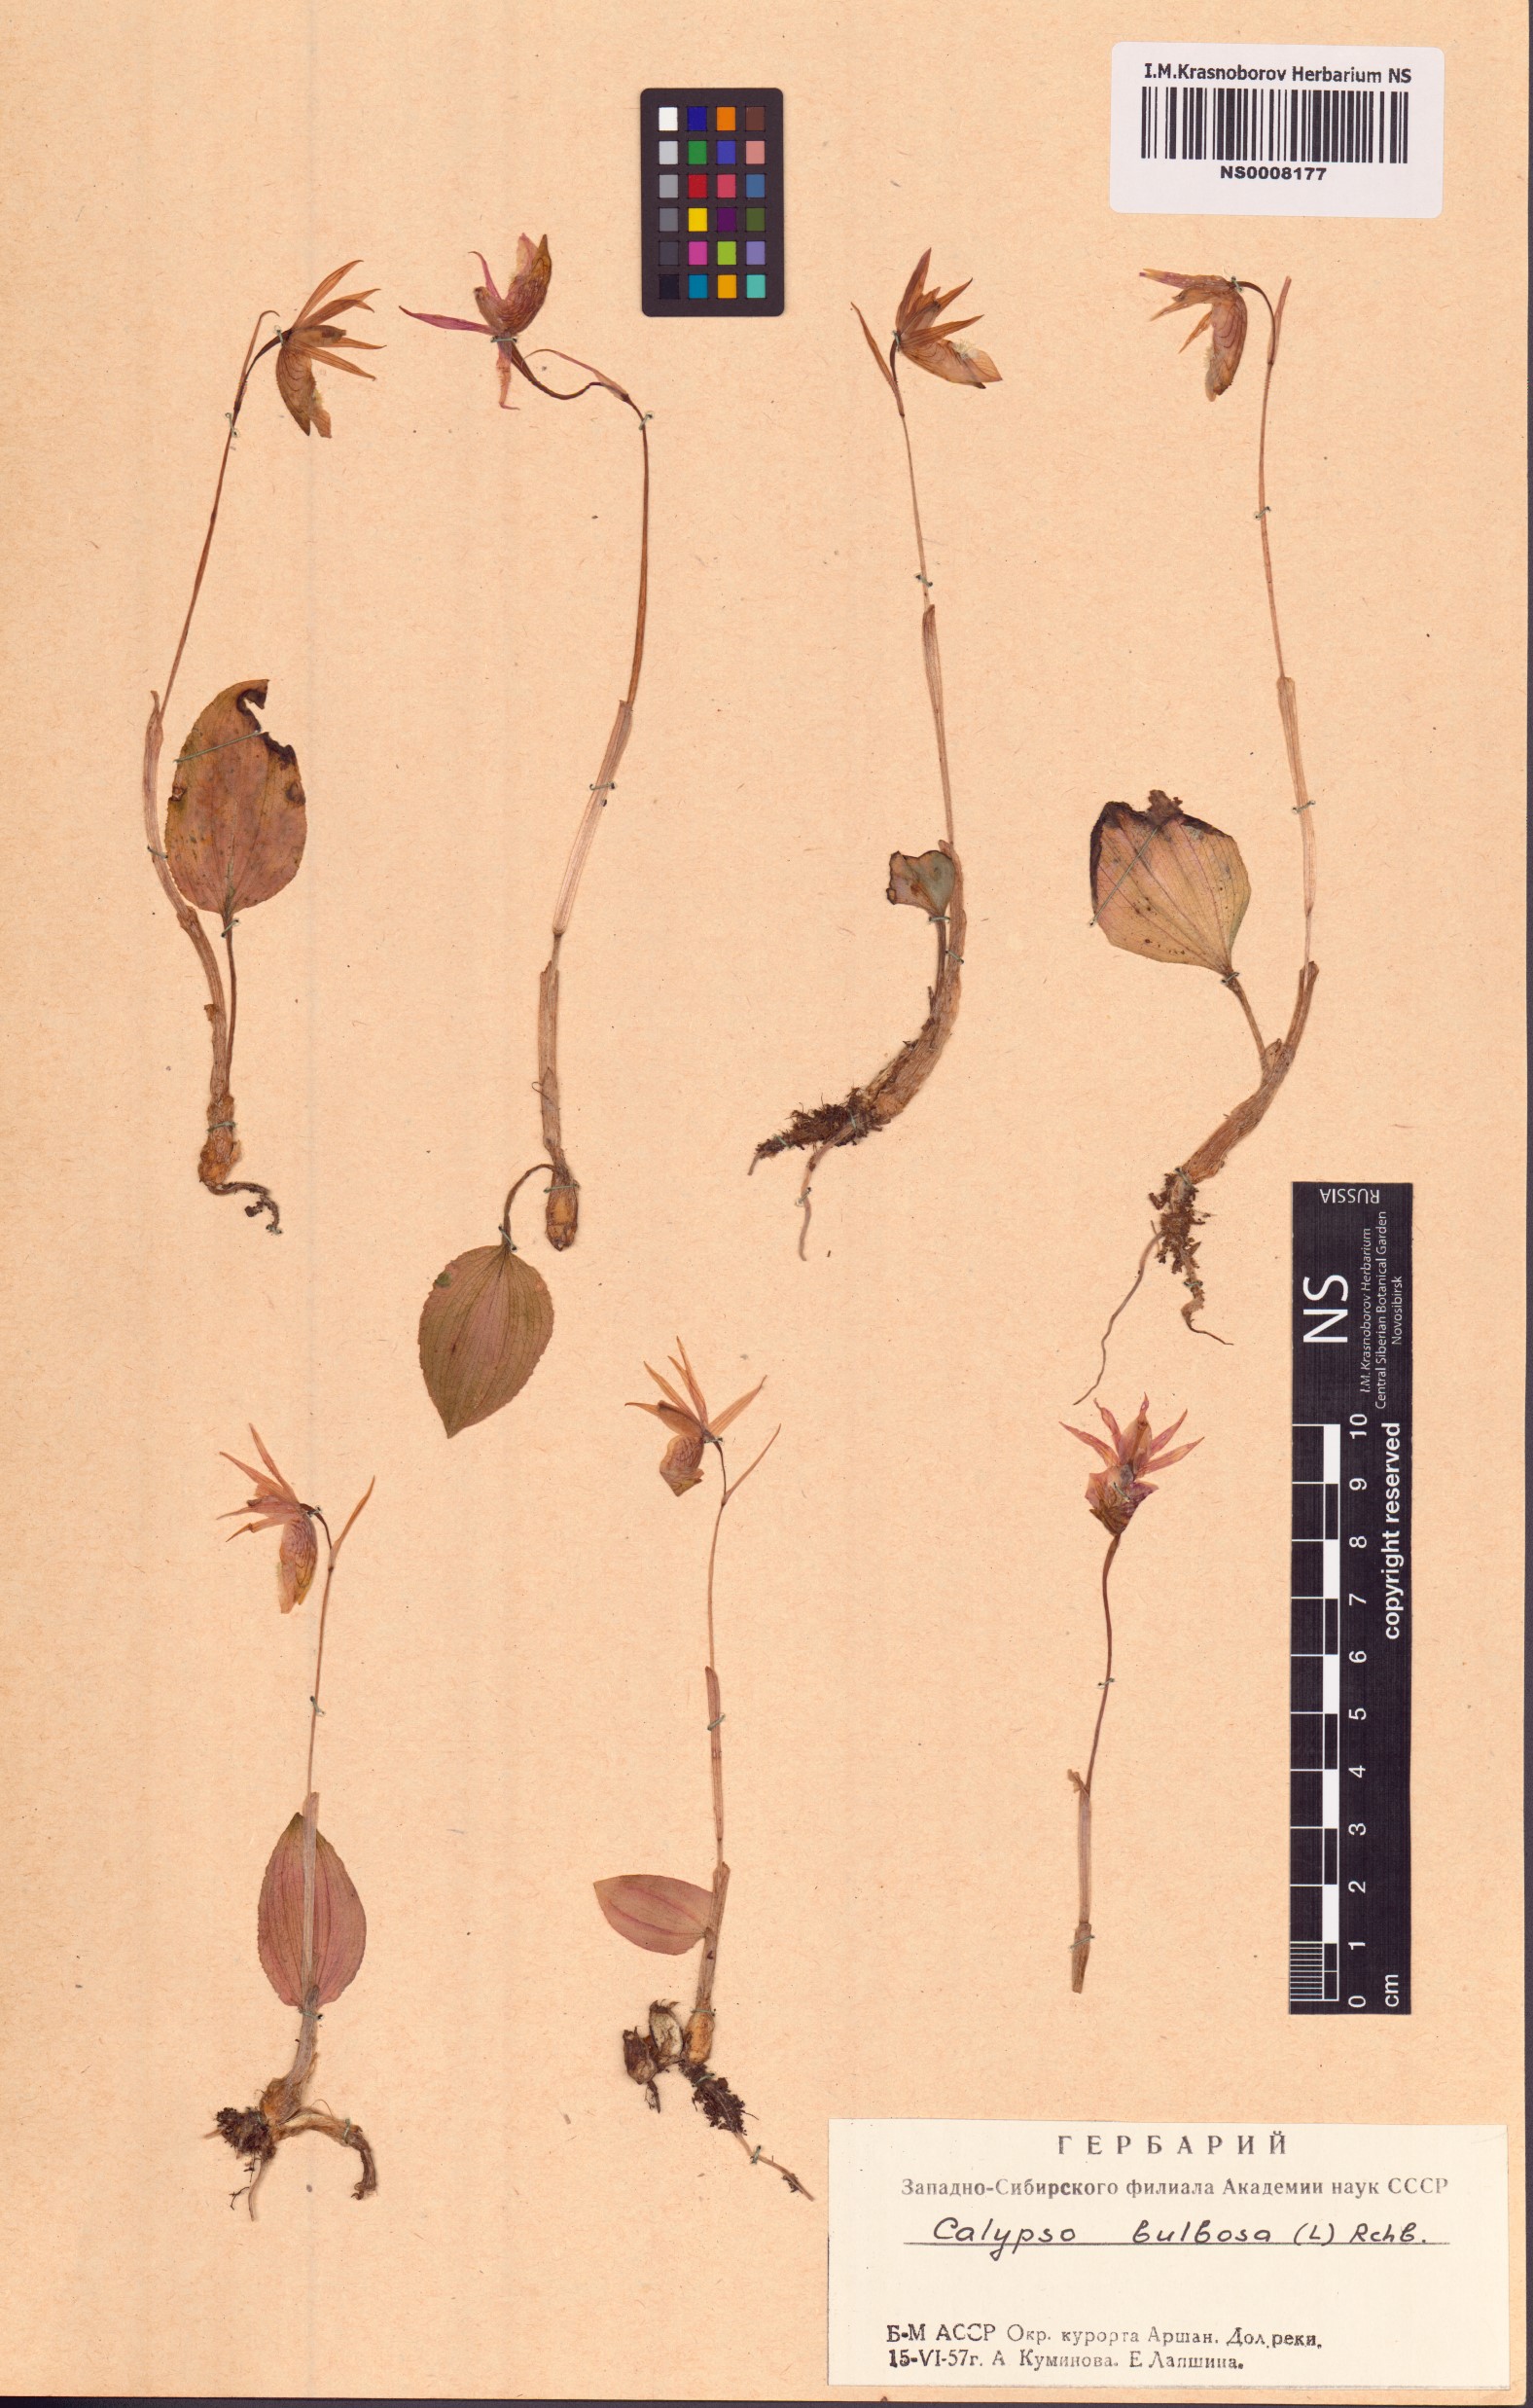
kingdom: Plantae
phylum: Tracheophyta
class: Liliopsida
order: Asparagales
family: Orchidaceae
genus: Calypso
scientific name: Calypso bulbosa
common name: Calypso
